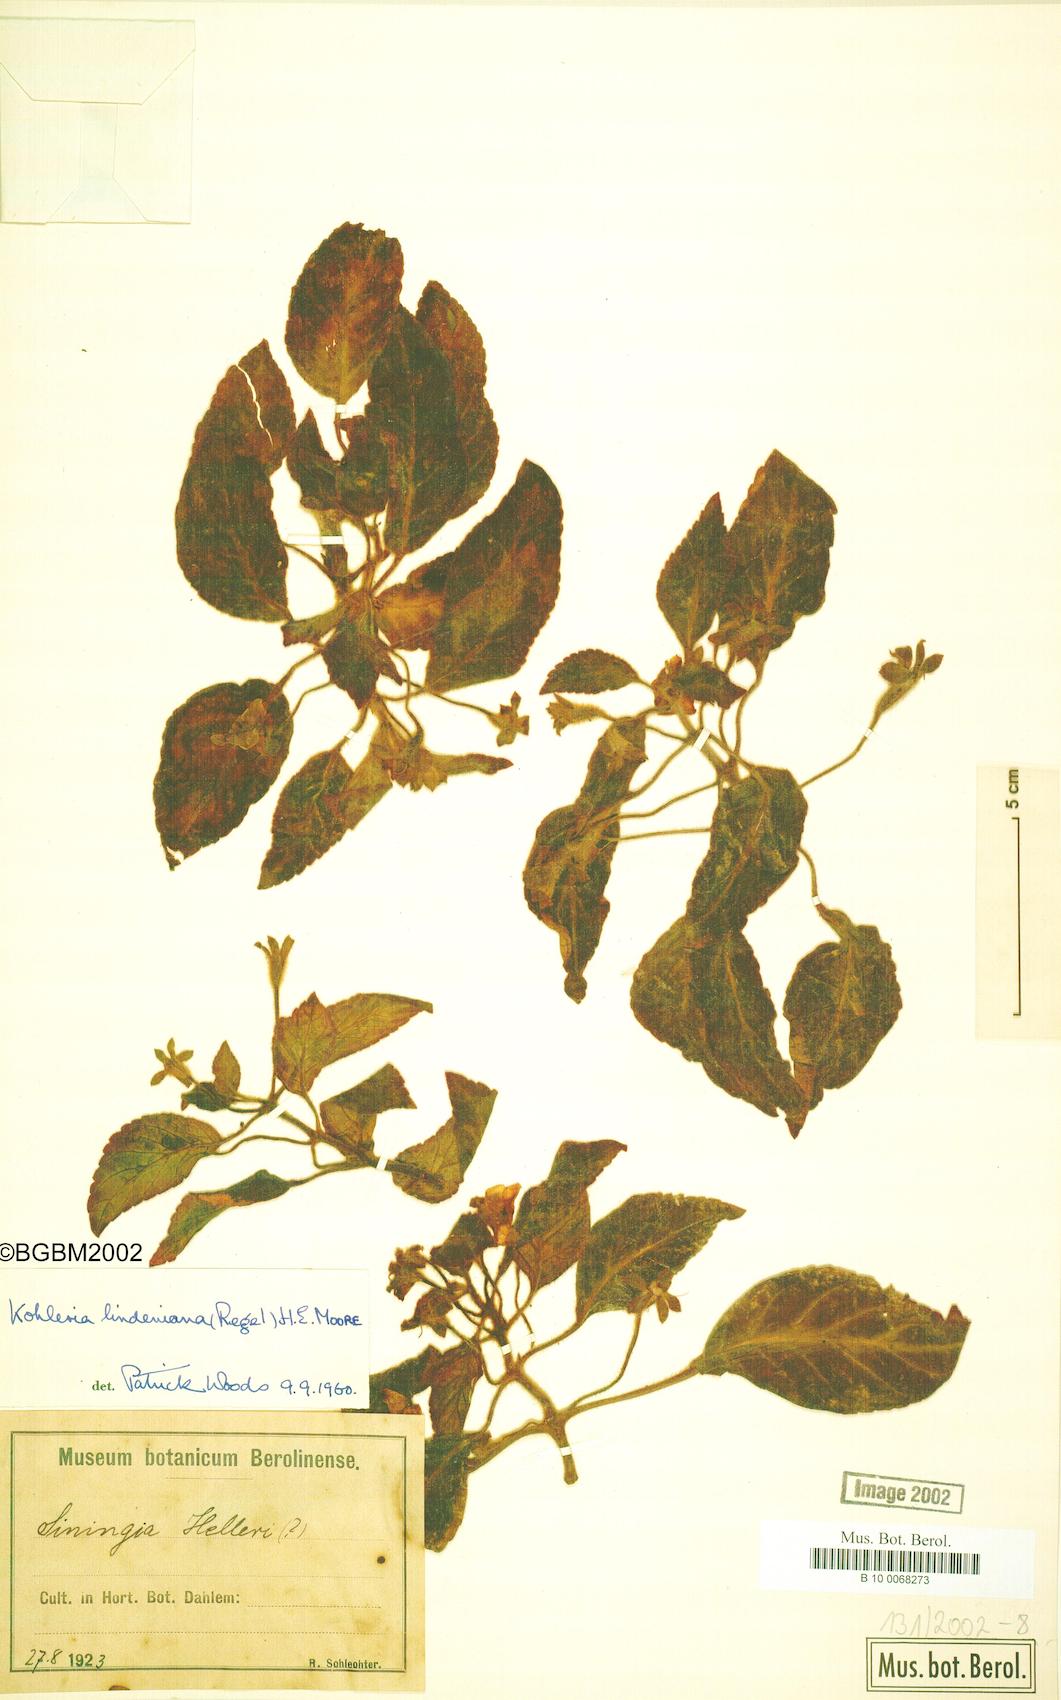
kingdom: Plantae
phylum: Tracheophyta
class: Magnoliopsida
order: Lamiales
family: Gesneriaceae
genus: Gloxinella
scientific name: Gloxinella lindeniana
